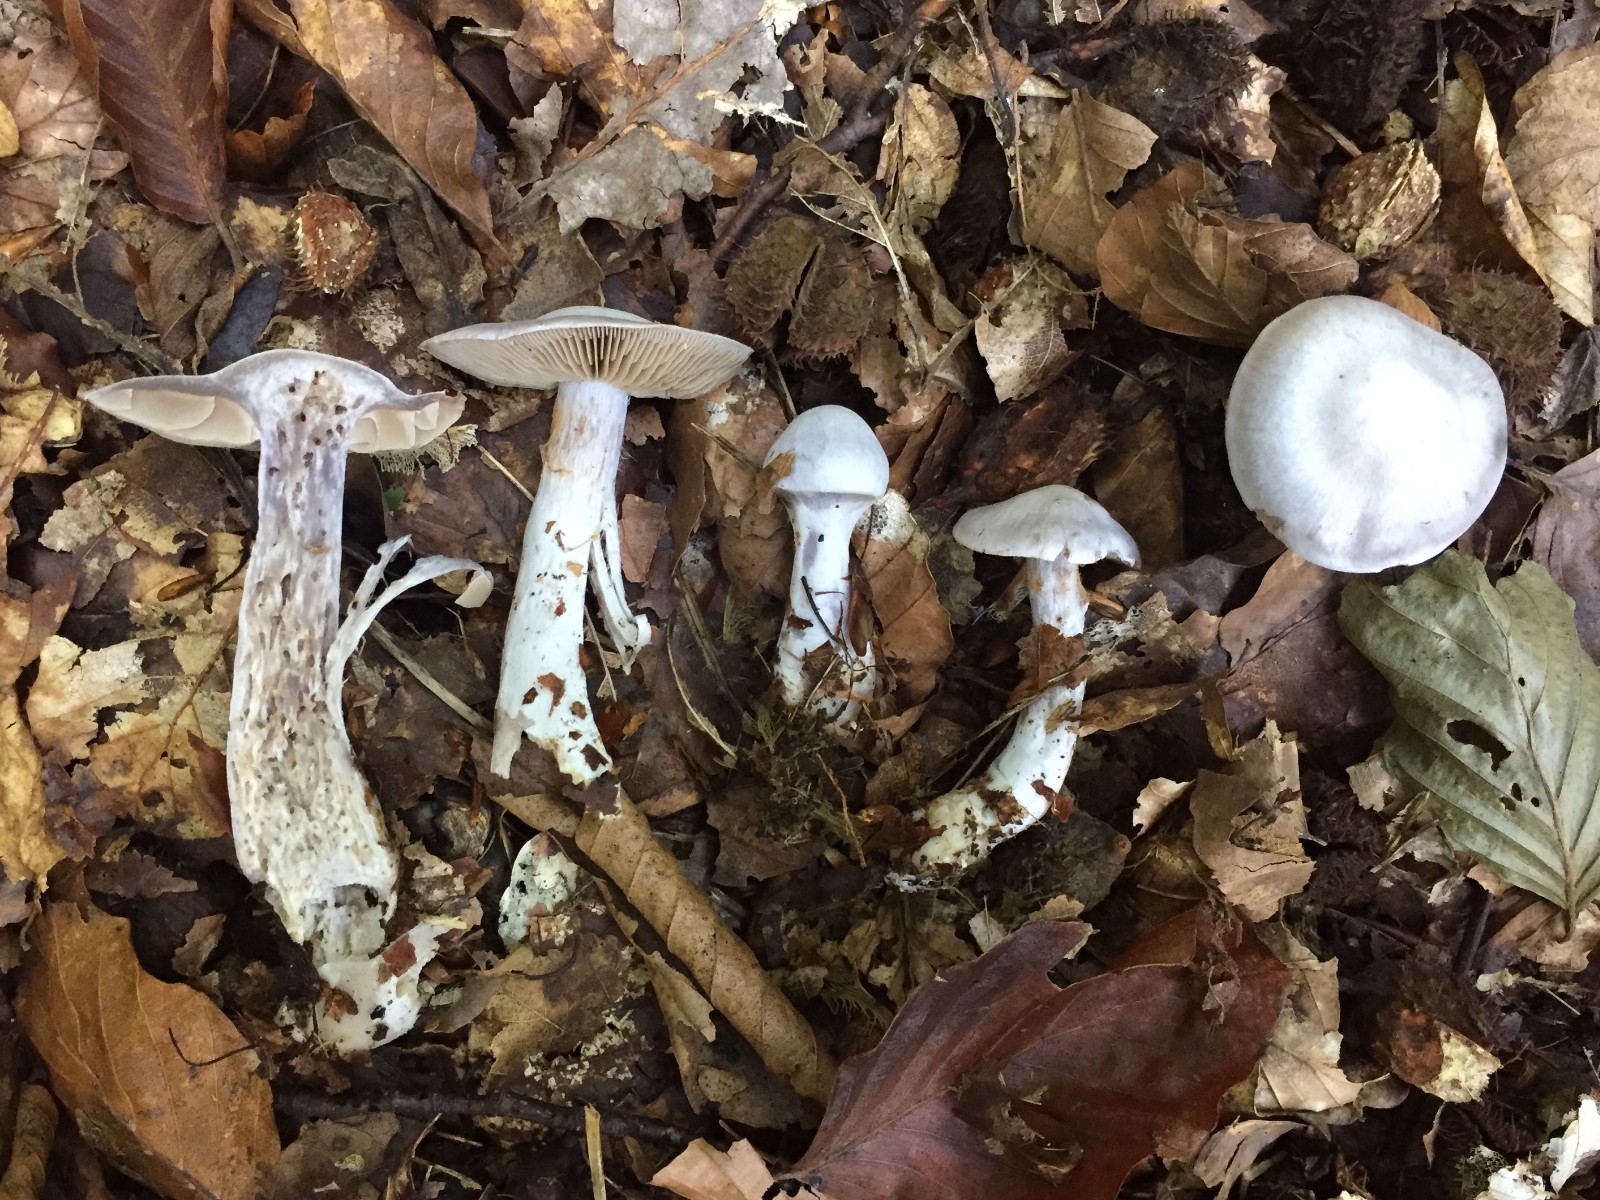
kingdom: Fungi
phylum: Basidiomycota
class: Agaricomycetes
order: Agaricales
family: Cortinariaceae
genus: Cortinarius
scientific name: Cortinarius alboviolaceus
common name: lysviolet slørhat
